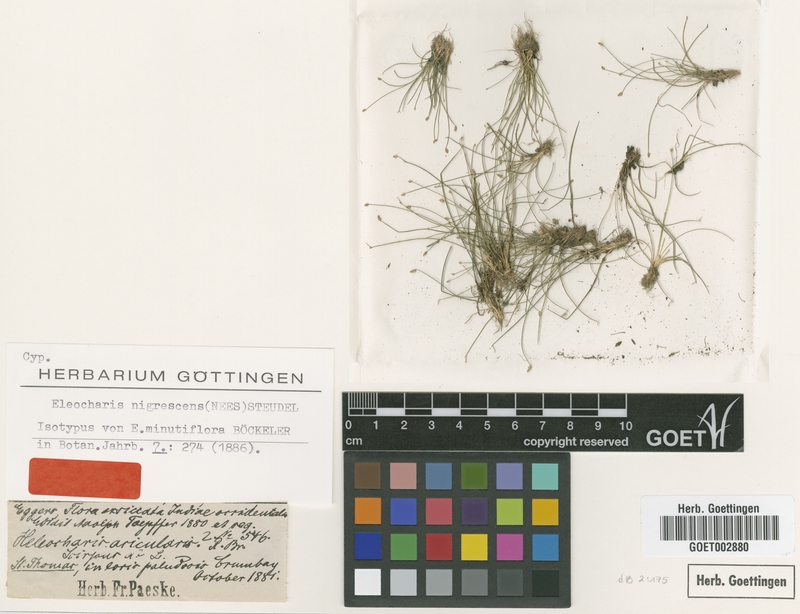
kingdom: Plantae
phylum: Tracheophyta
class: Liliopsida
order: Poales
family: Cyperaceae
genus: Eleocharis
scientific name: Eleocharis nigrescens
